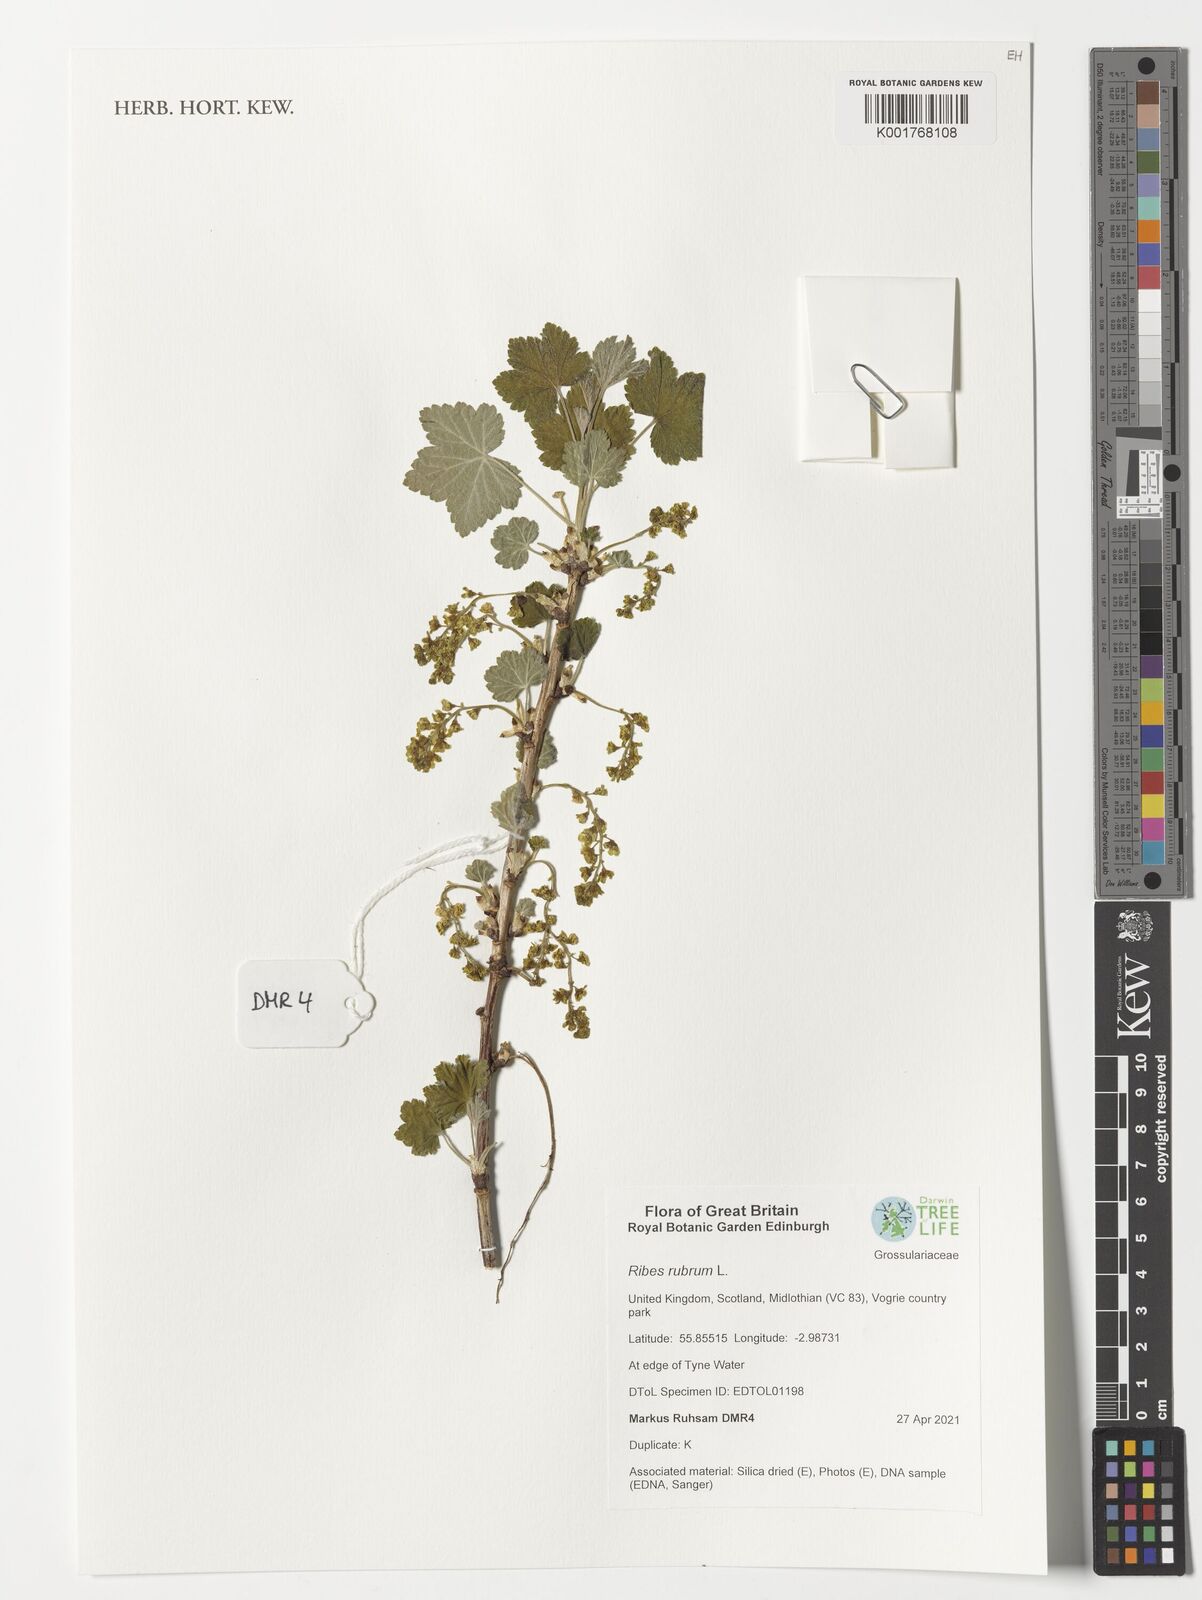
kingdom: Plantae
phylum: Tracheophyta
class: Magnoliopsida
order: Saxifragales
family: Grossulariaceae
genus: Ribes
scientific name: Ribes rubrum
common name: Red currant
